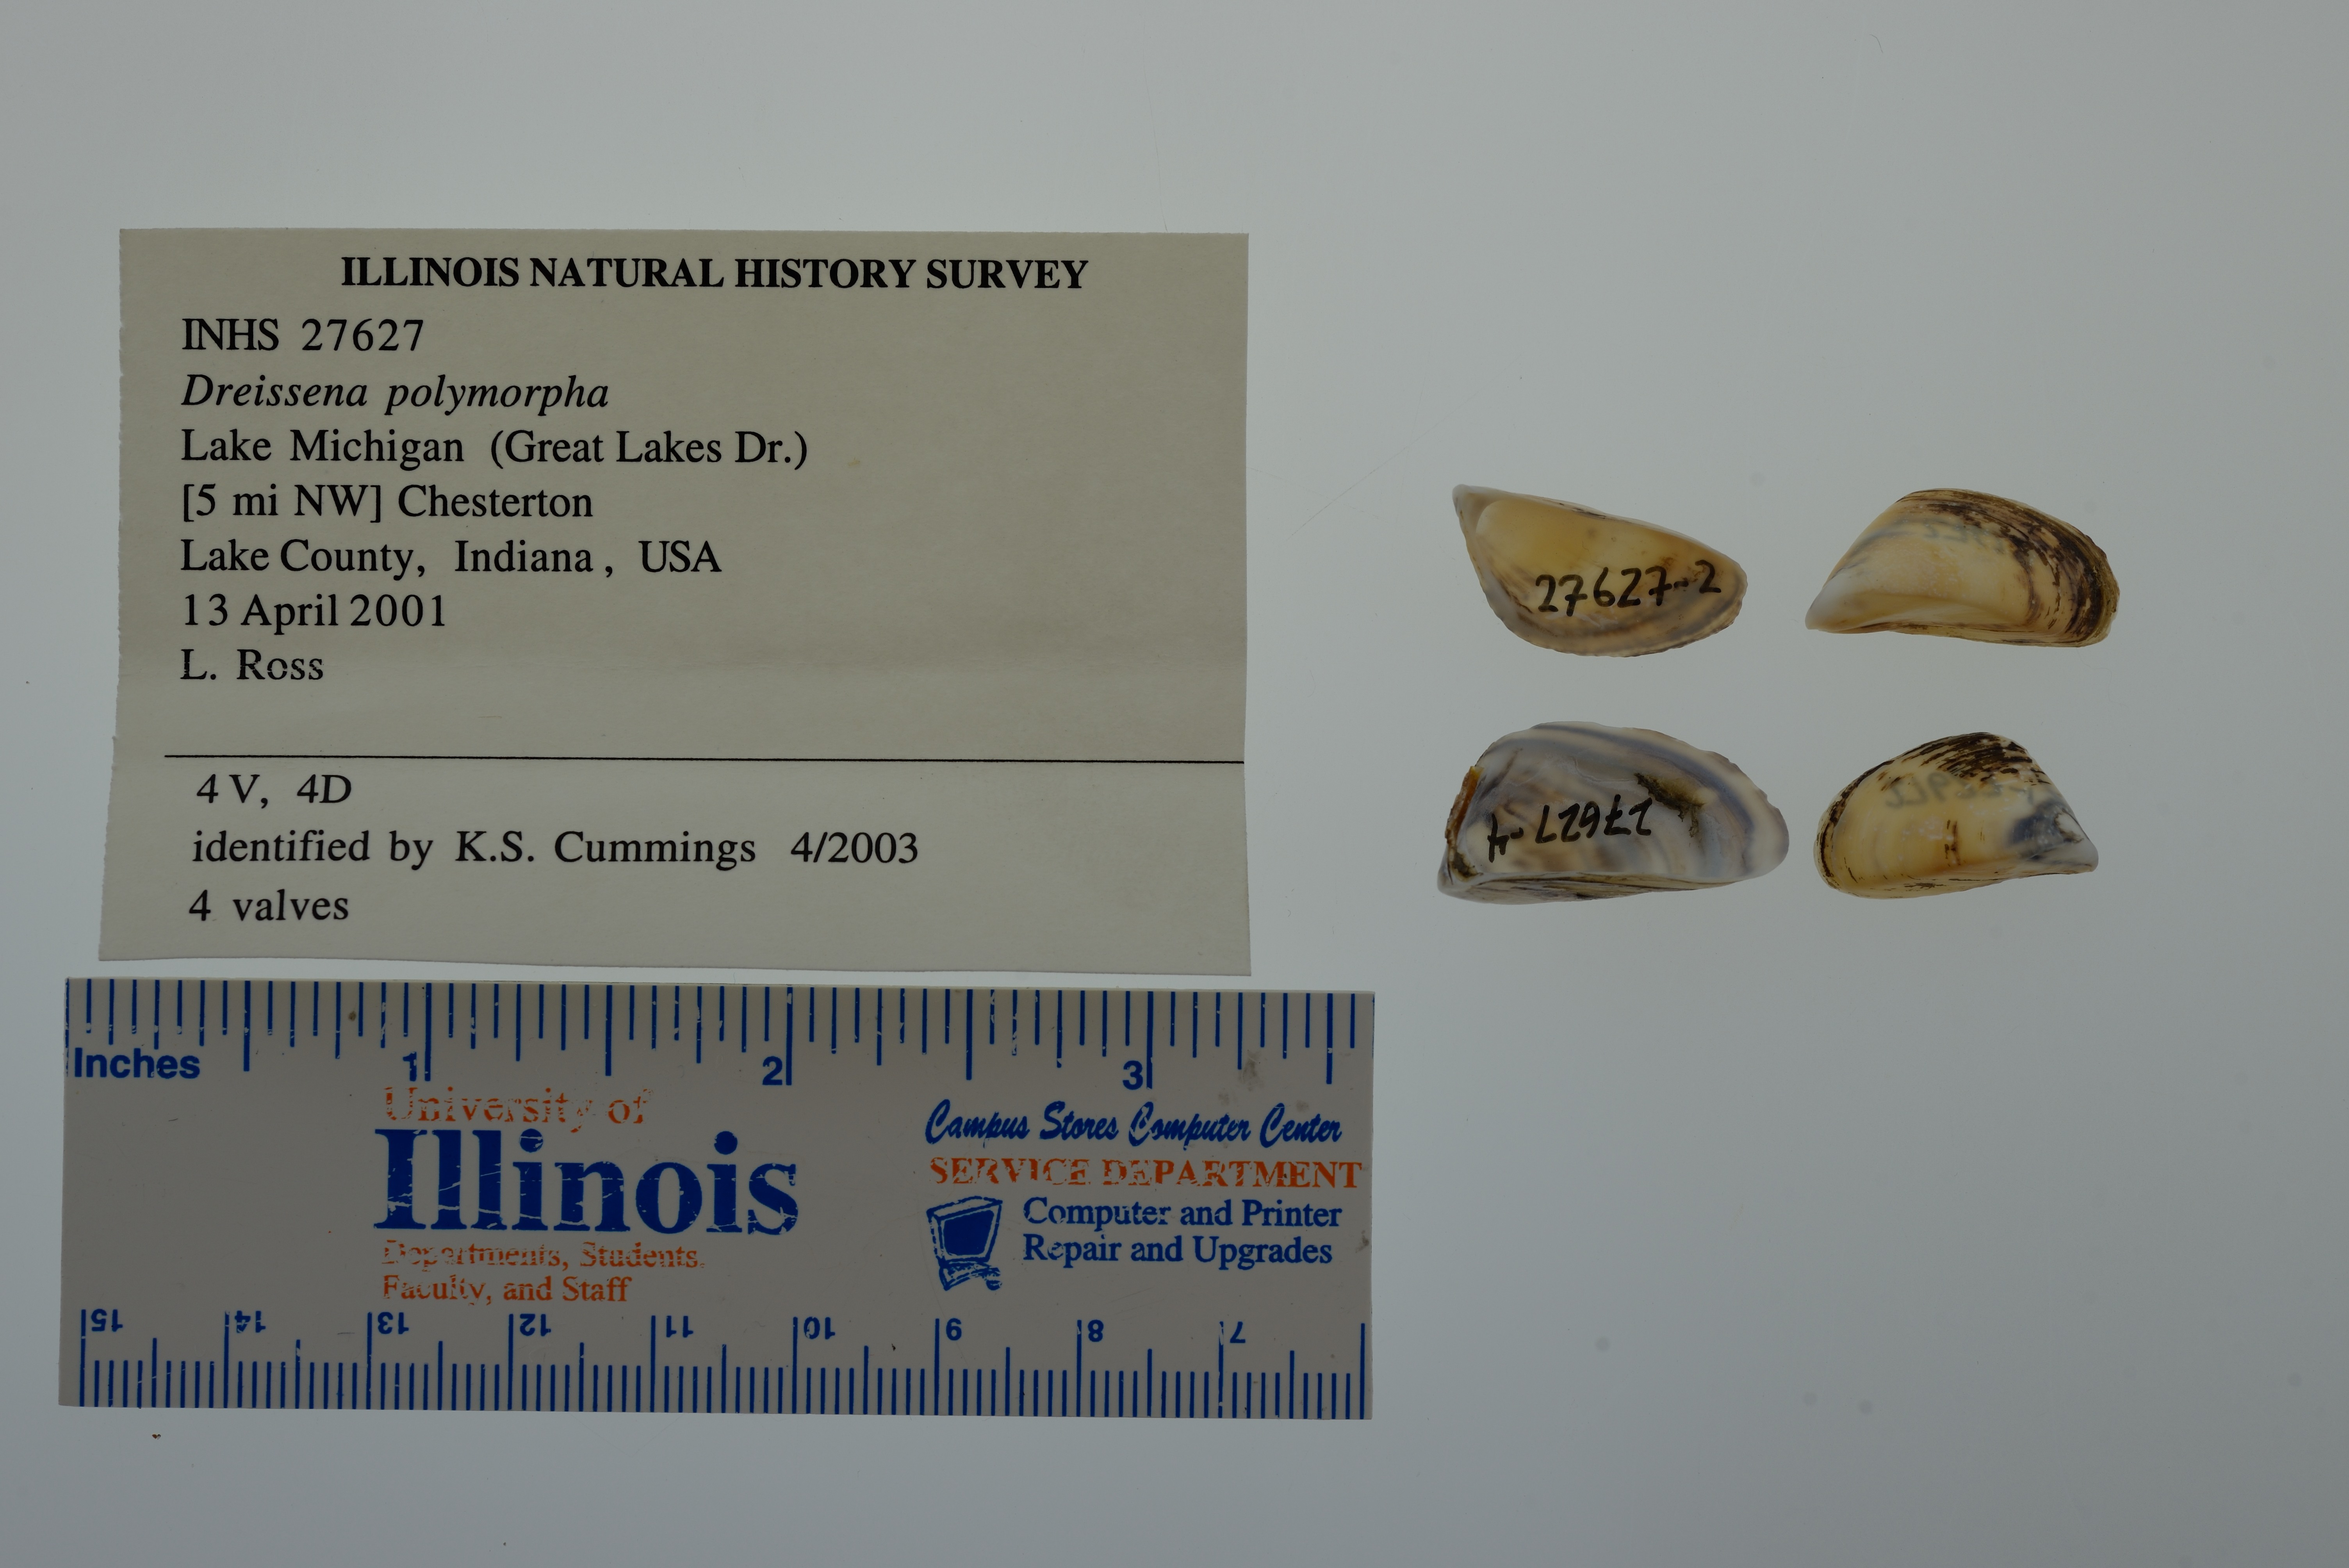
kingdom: Animalia
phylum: Mollusca
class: Bivalvia
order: Myida
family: Dreissenidae
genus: Dreissena
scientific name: Dreissena polymorpha
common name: Zebra mussel
